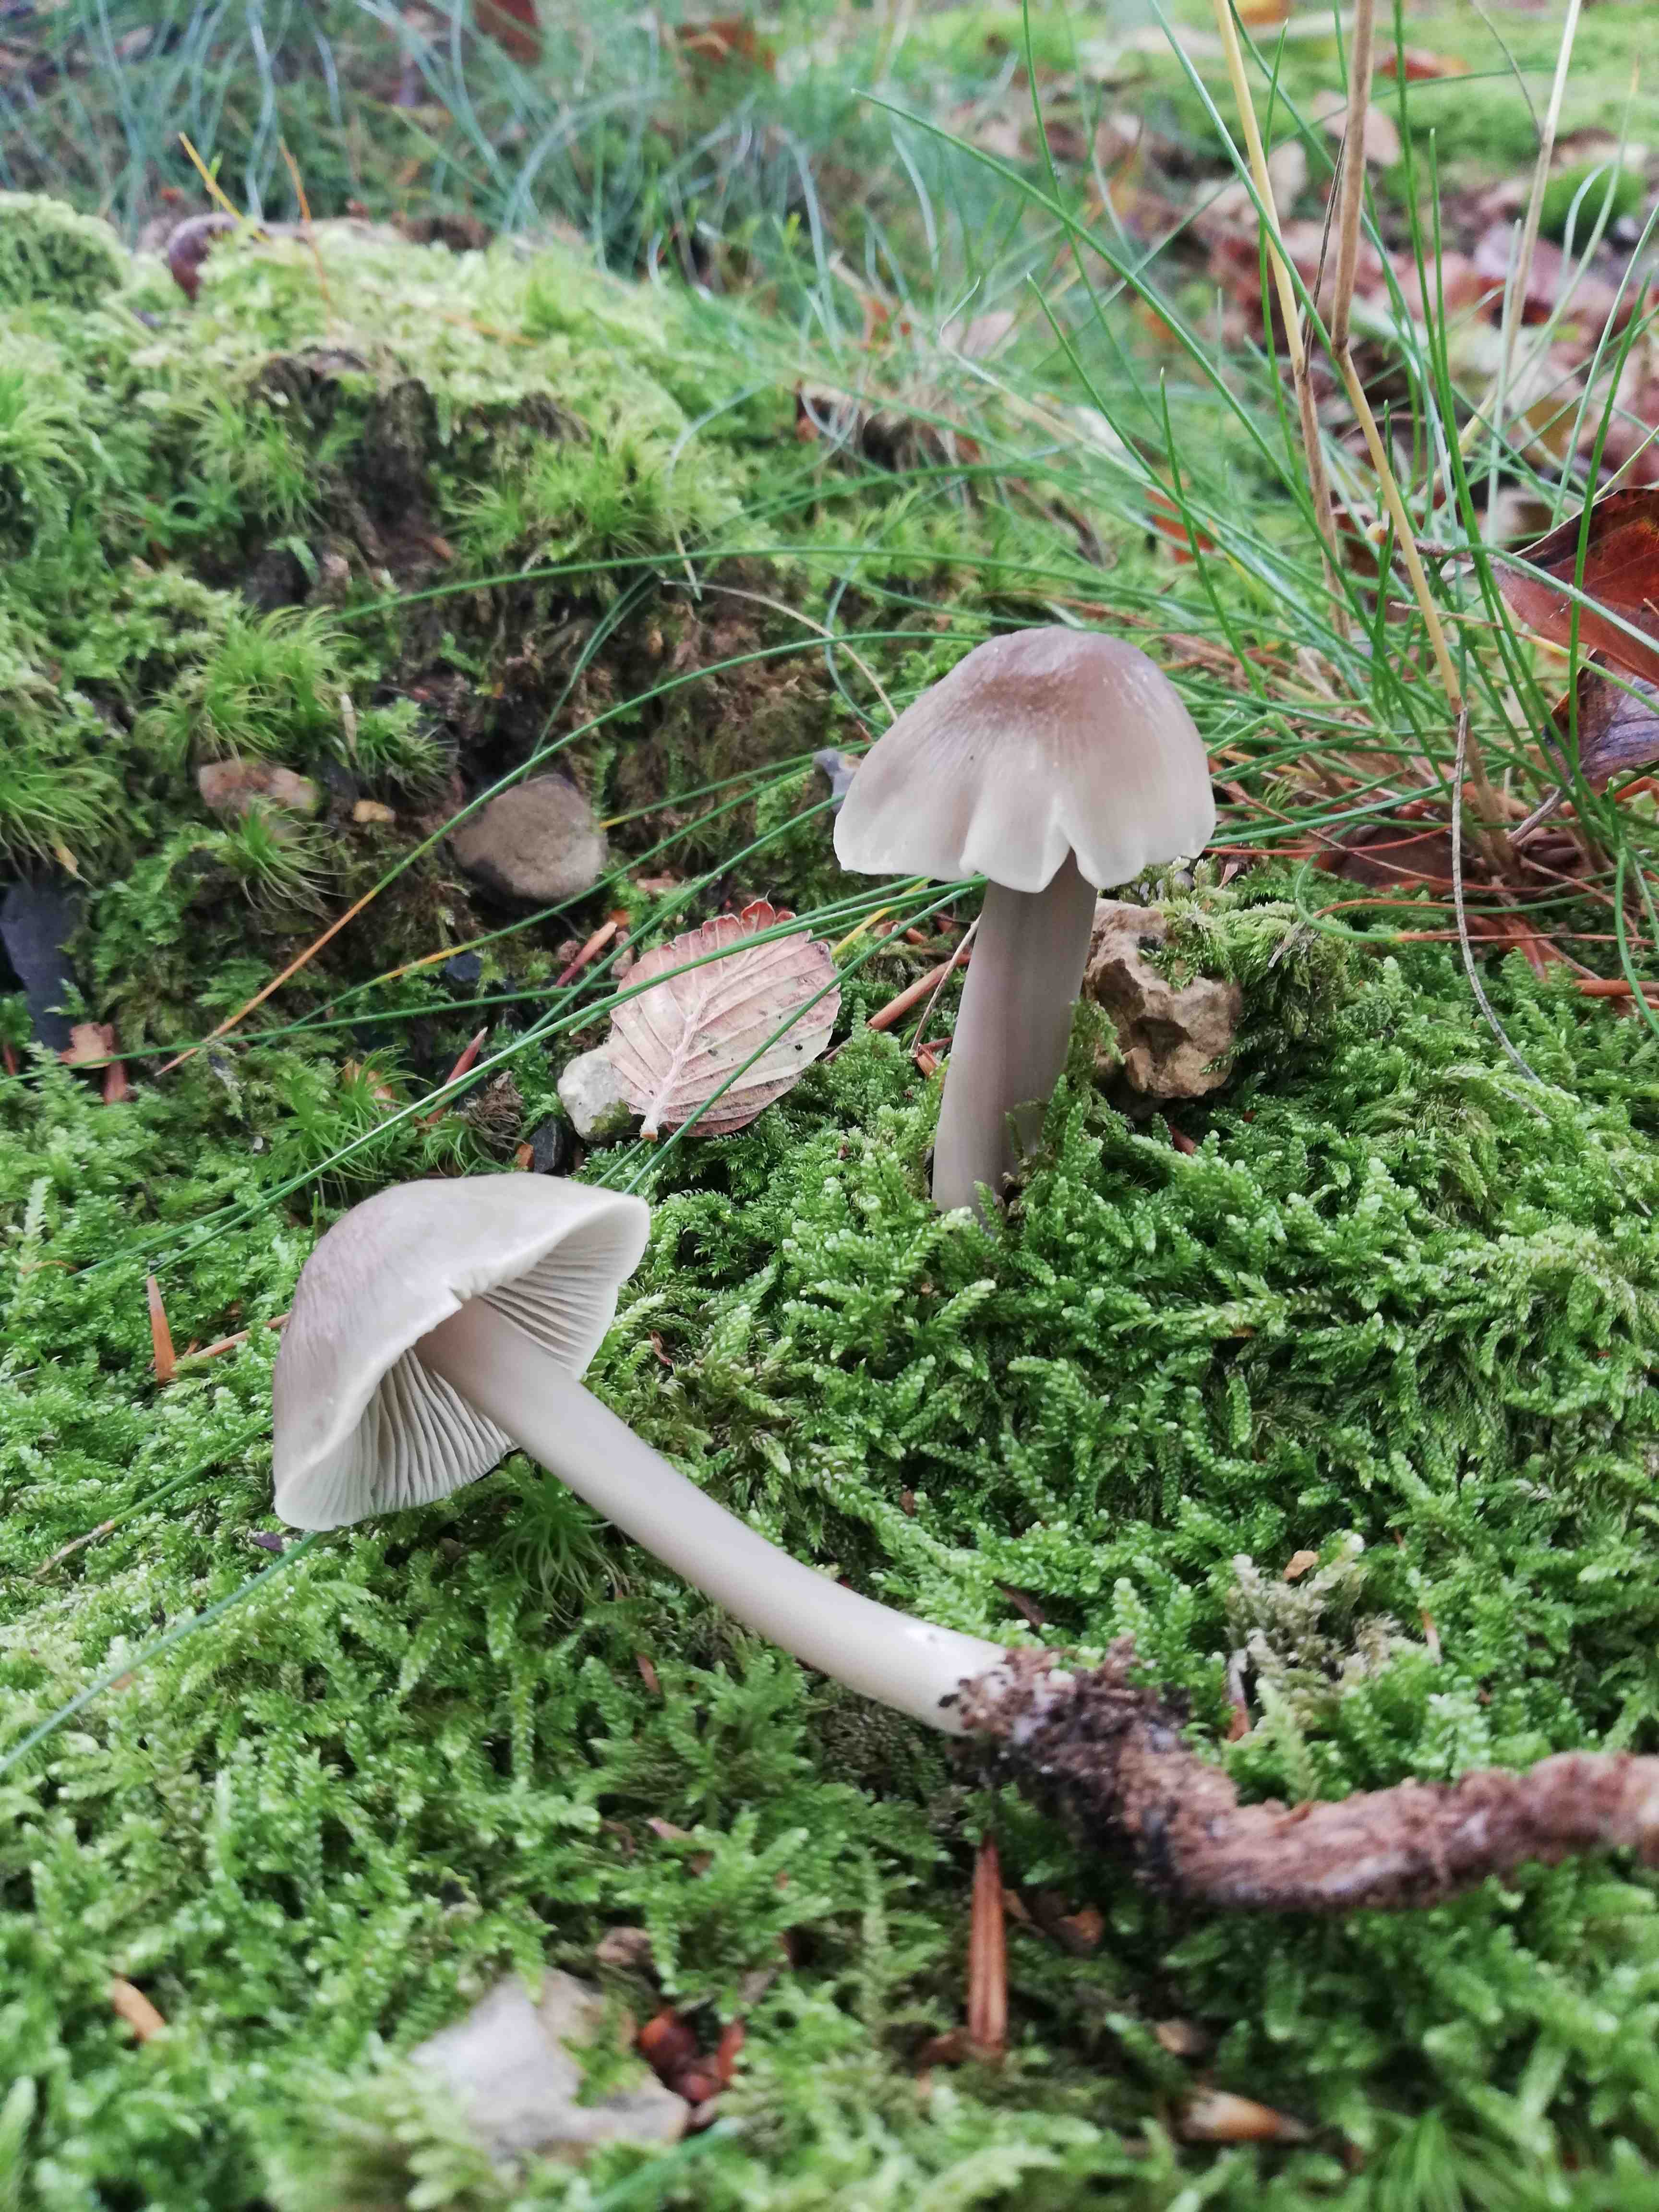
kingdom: Fungi
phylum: Basidiomycota
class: Agaricomycetes
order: Agaricales
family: Mycenaceae
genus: Mycena
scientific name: Mycena galericulata
